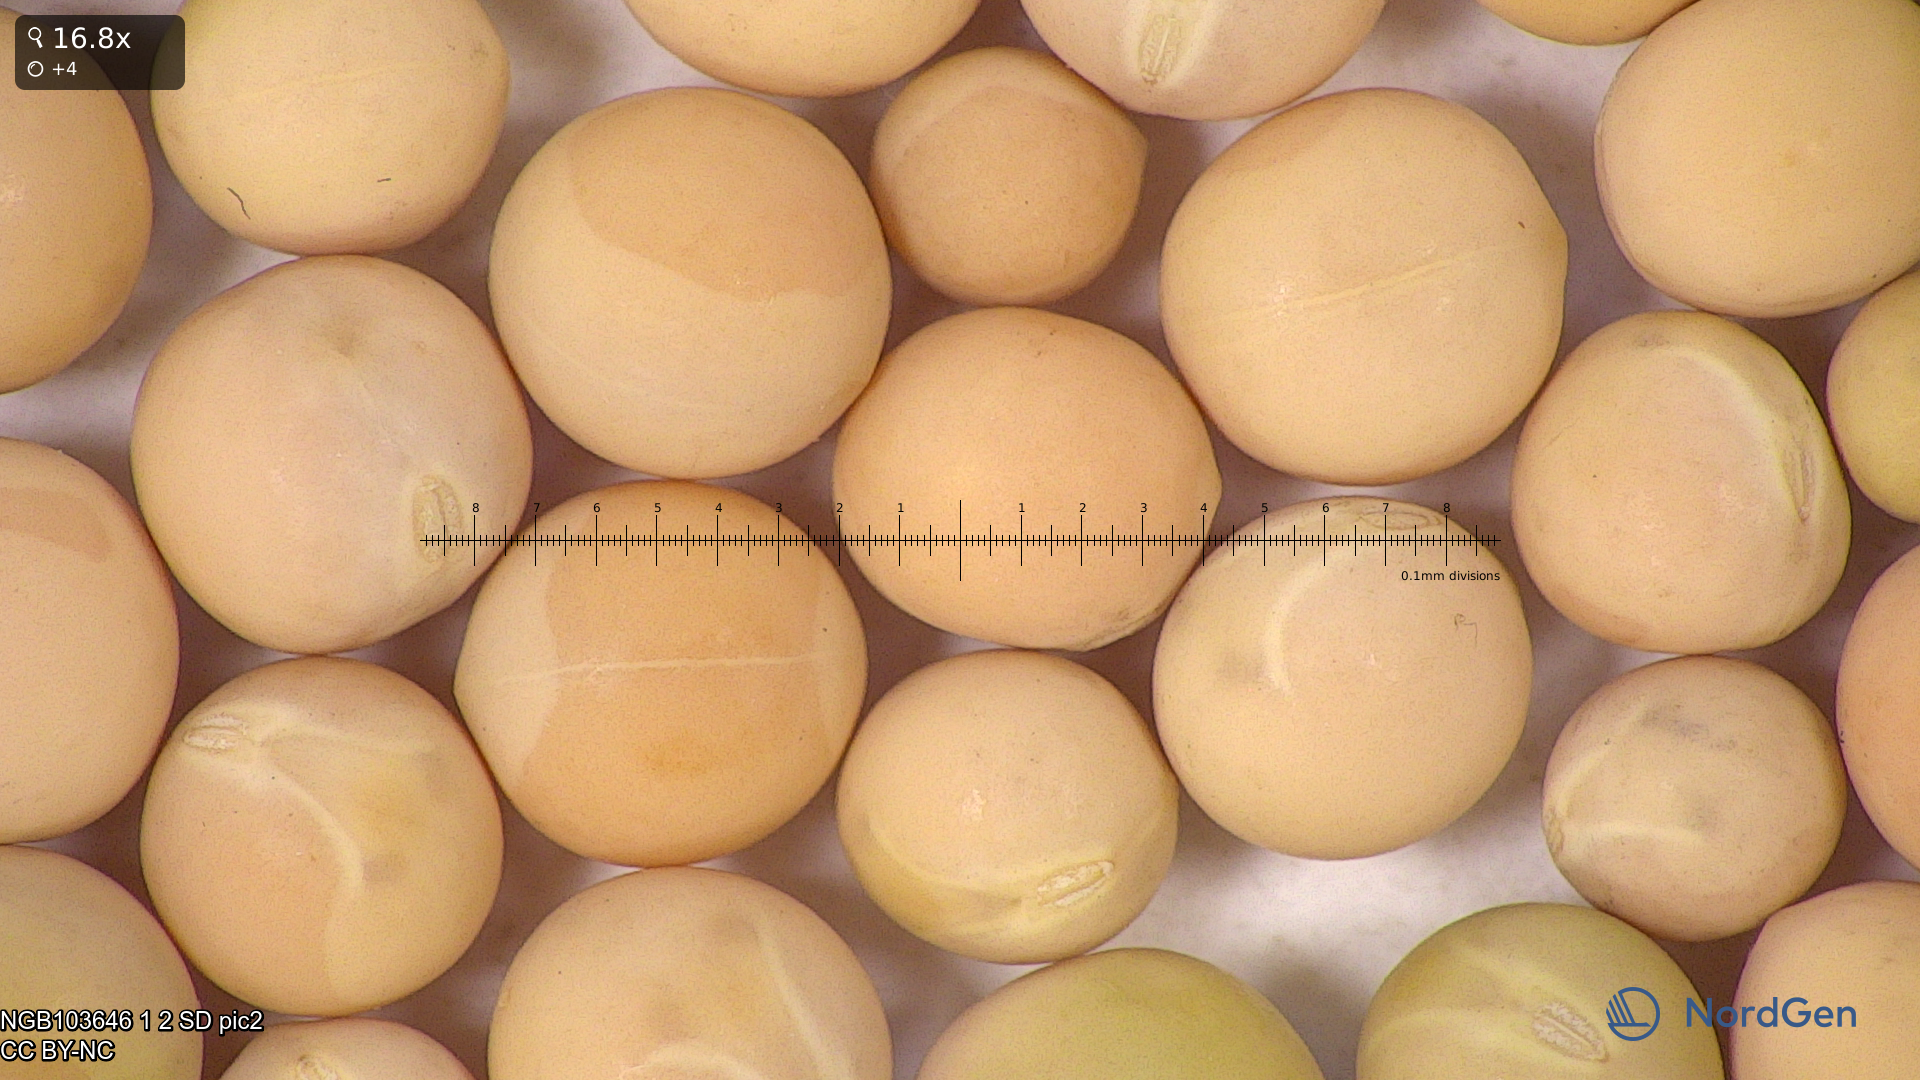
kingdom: Plantae
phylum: Tracheophyta
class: Magnoliopsida
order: Fabales
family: Fabaceae
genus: Lathyrus
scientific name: Lathyrus oleraceus
